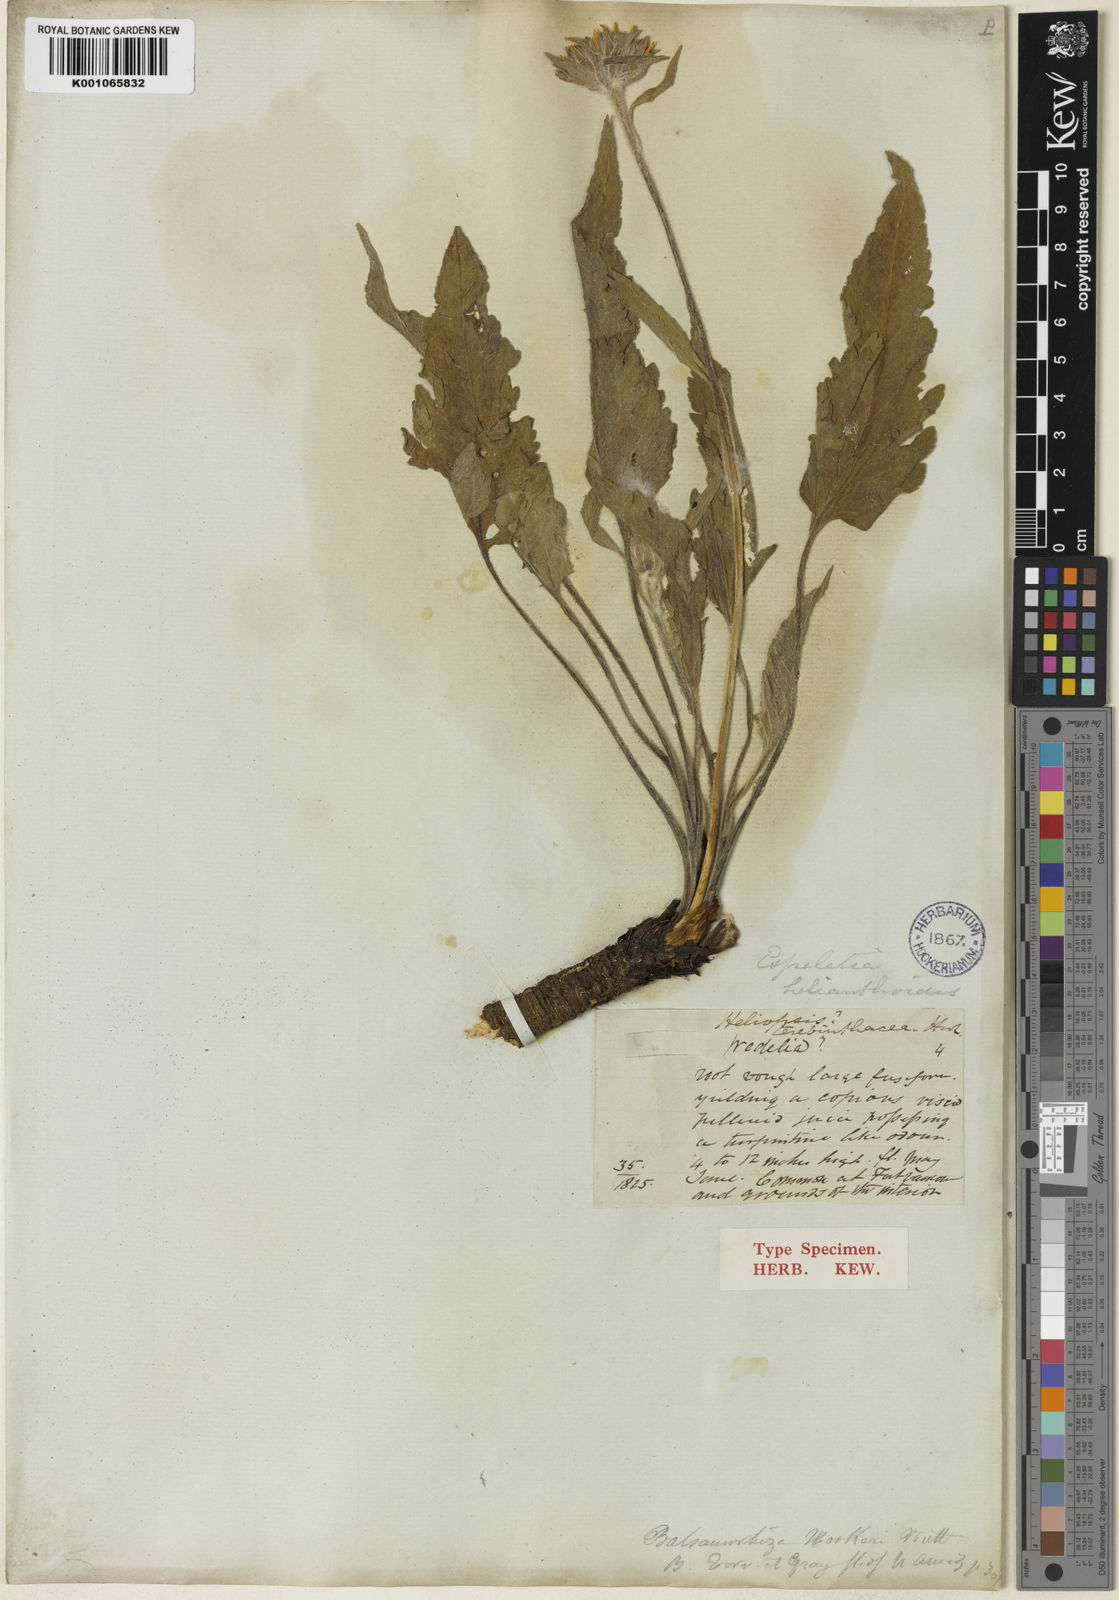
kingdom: Plantae
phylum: Tracheophyta
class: Magnoliopsida
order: Asterales
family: Asteraceae
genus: Balsamorhiza
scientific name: Balsamorhiza
